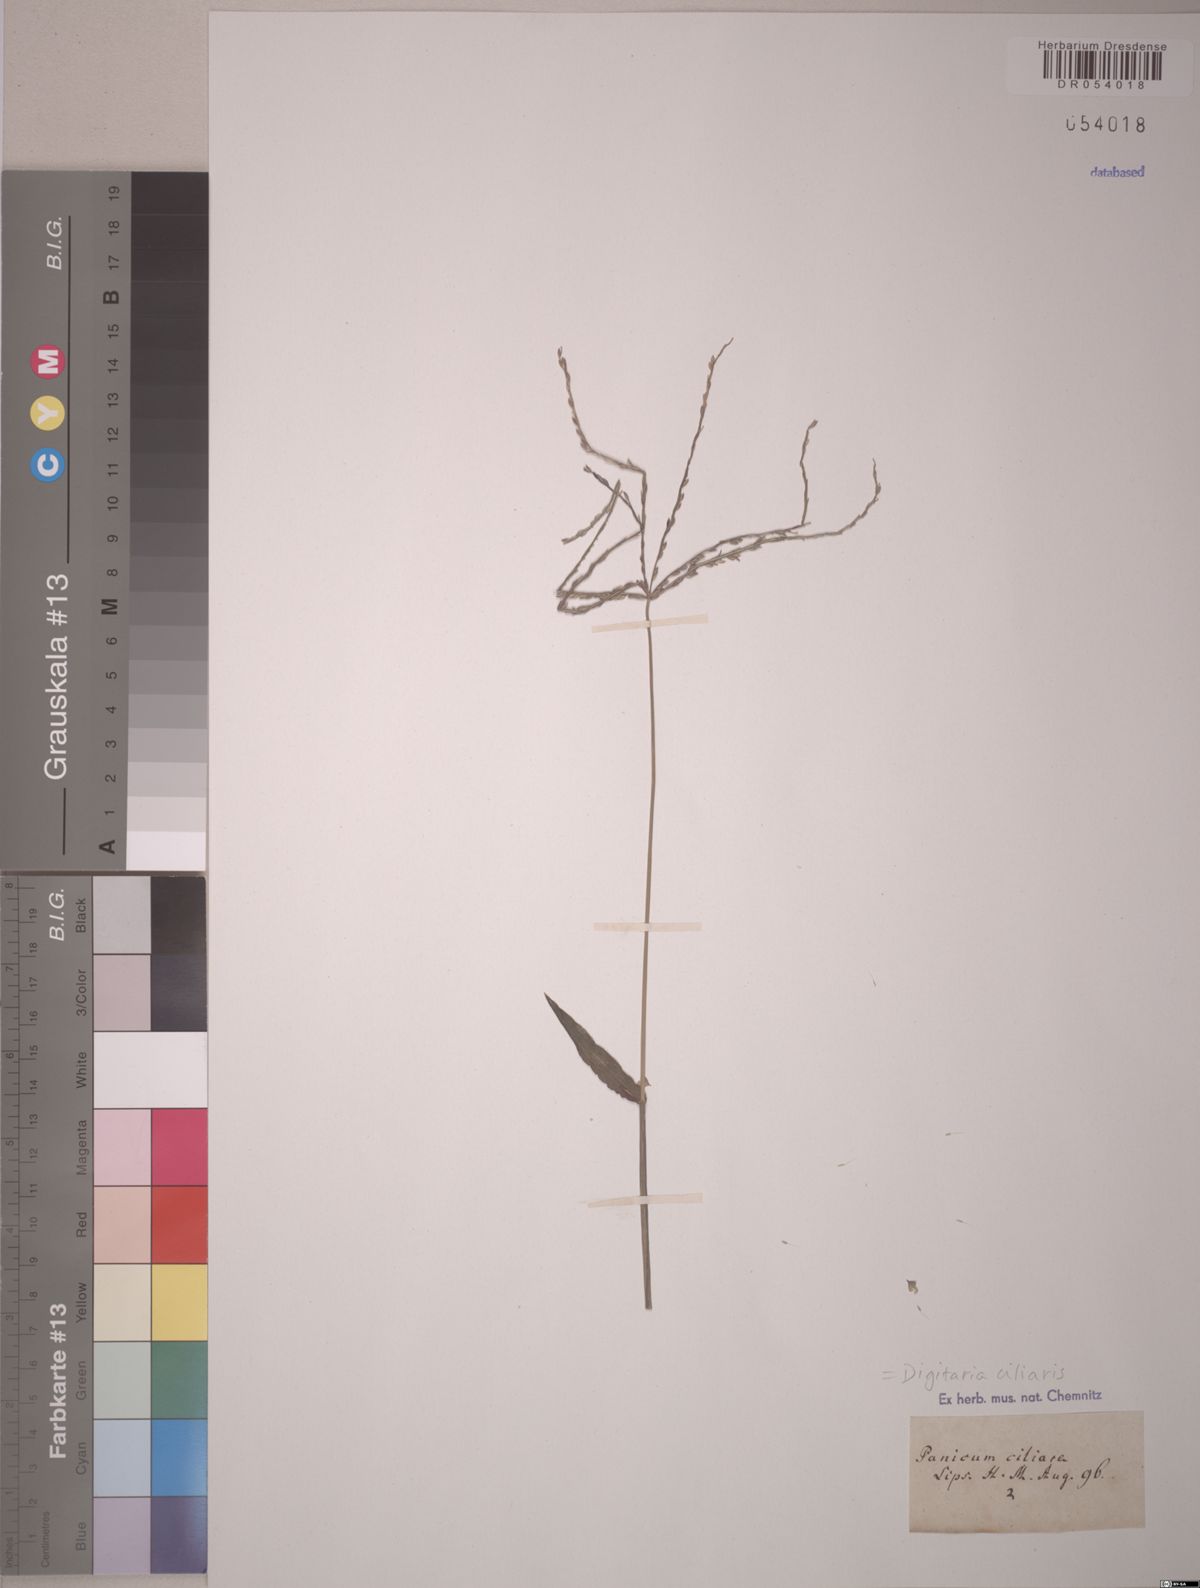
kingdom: Plantae
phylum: Tracheophyta
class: Liliopsida
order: Poales
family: Poaceae
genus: Digitaria
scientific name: Digitaria ciliaris
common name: Tropical finger-grass
